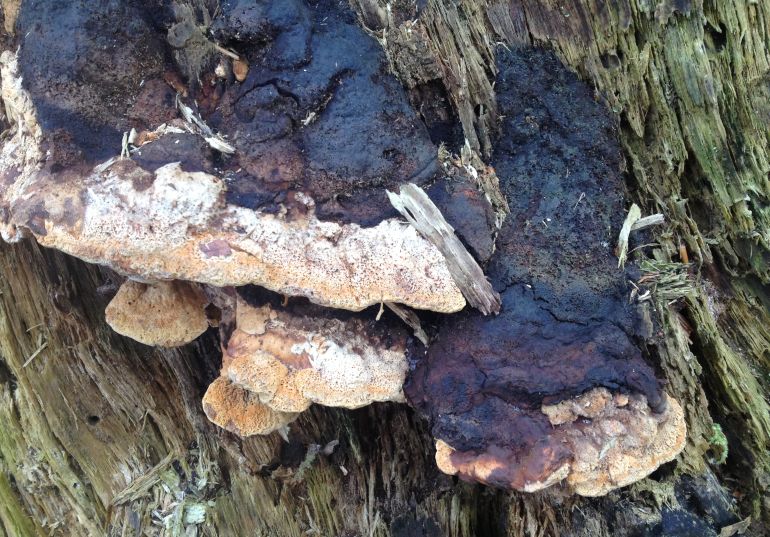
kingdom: Fungi
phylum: Basidiomycota
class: Agaricomycetes
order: Gloeophyllales
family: Gloeophyllaceae
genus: Gloeophyllum
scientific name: Gloeophyllum odoratum
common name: duftende korkhat
